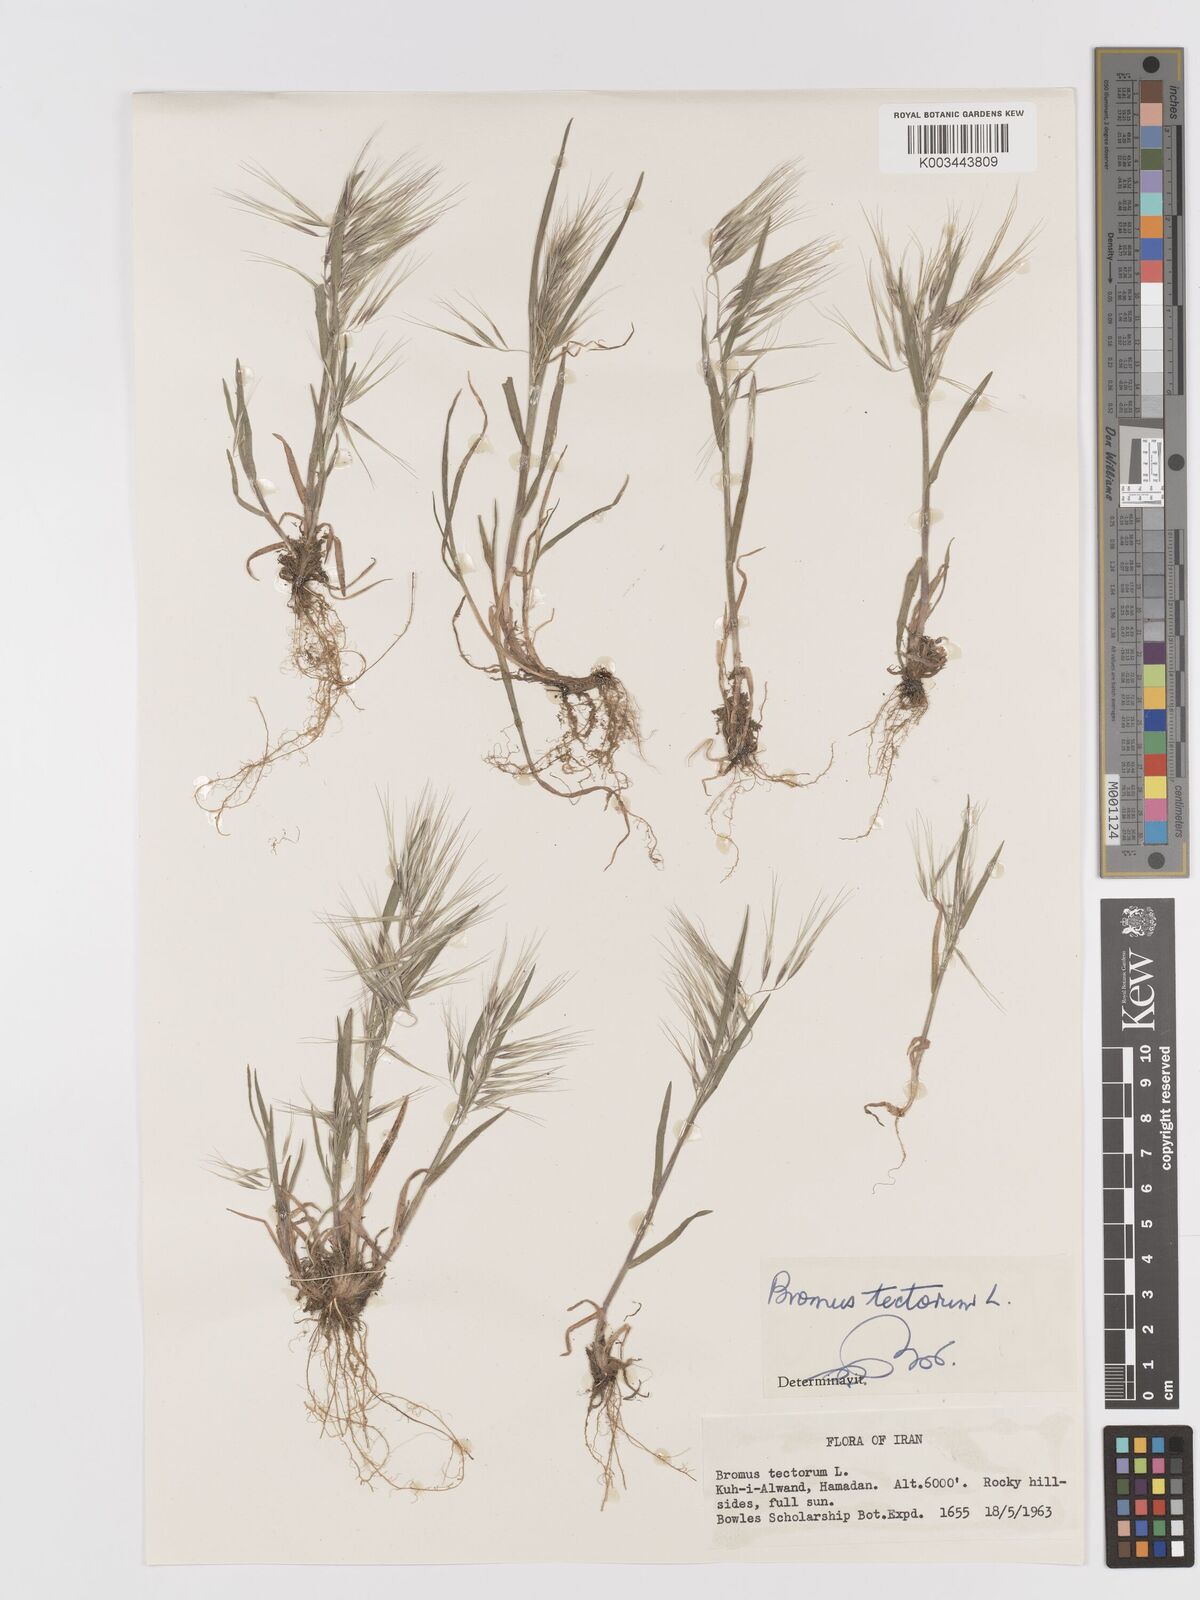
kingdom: Plantae
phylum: Tracheophyta
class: Liliopsida
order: Poales
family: Poaceae
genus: Bromus
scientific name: Bromus tectorum
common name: Cheatgrass
